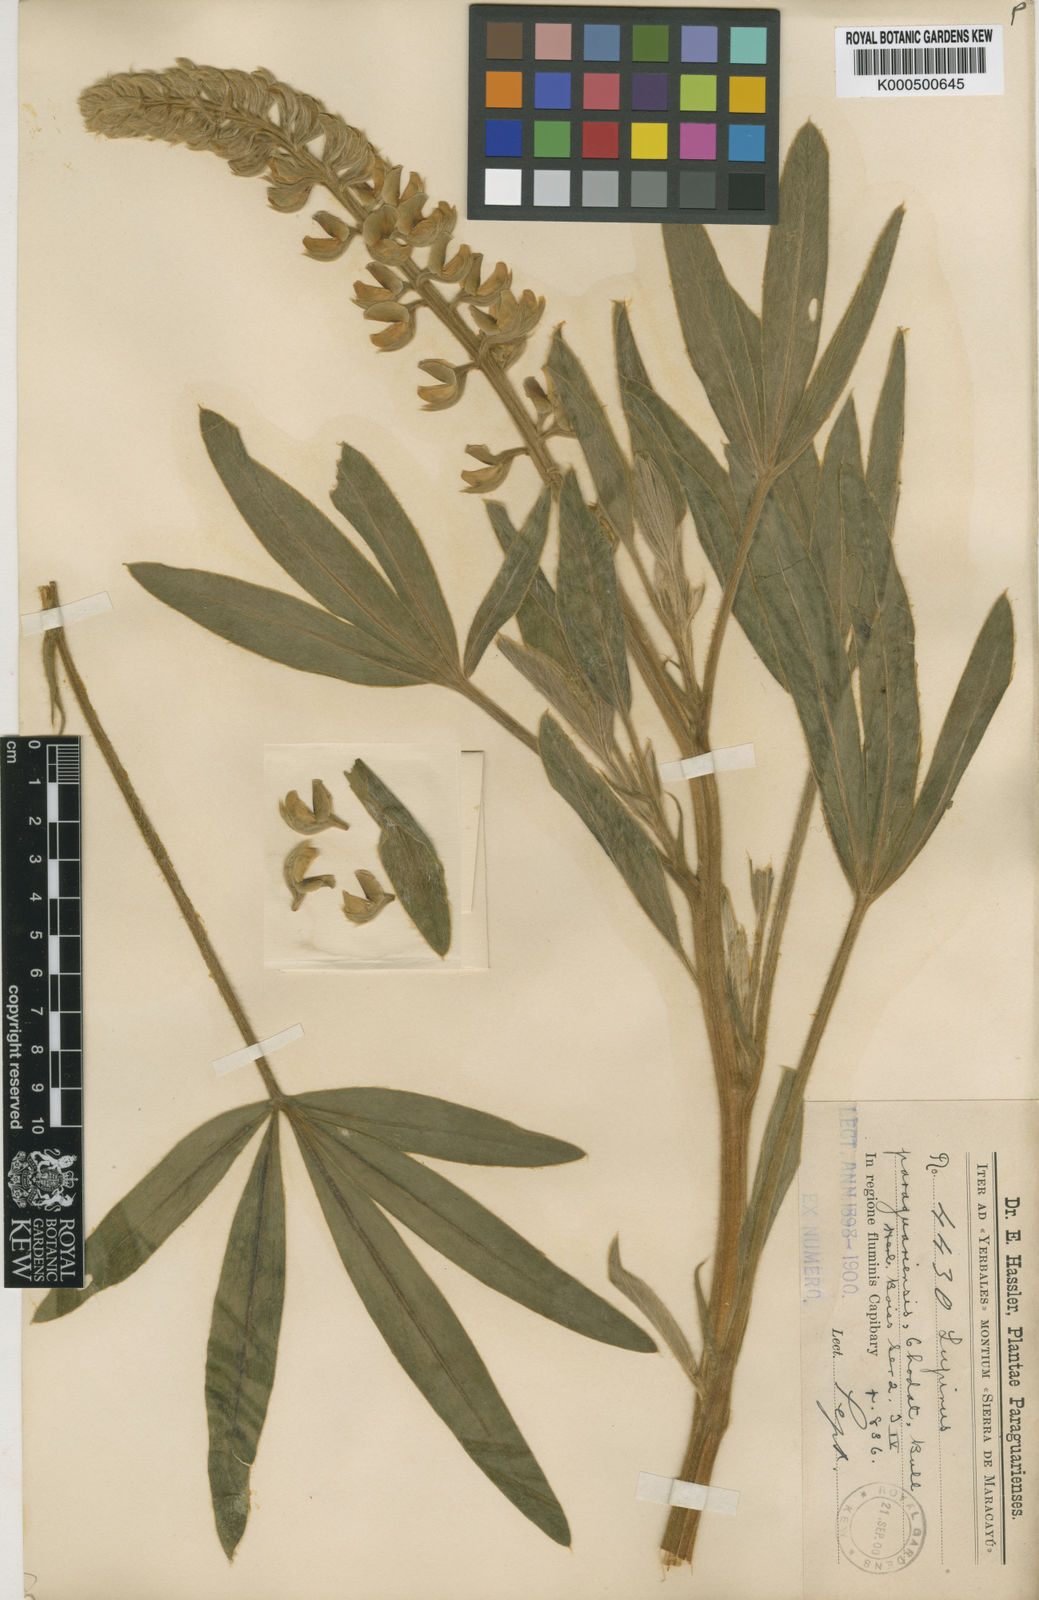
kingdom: Plantae
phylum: Tracheophyta
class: Magnoliopsida
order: Fabales
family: Fabaceae
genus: Lupinus
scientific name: Lupinus paraguariensis
